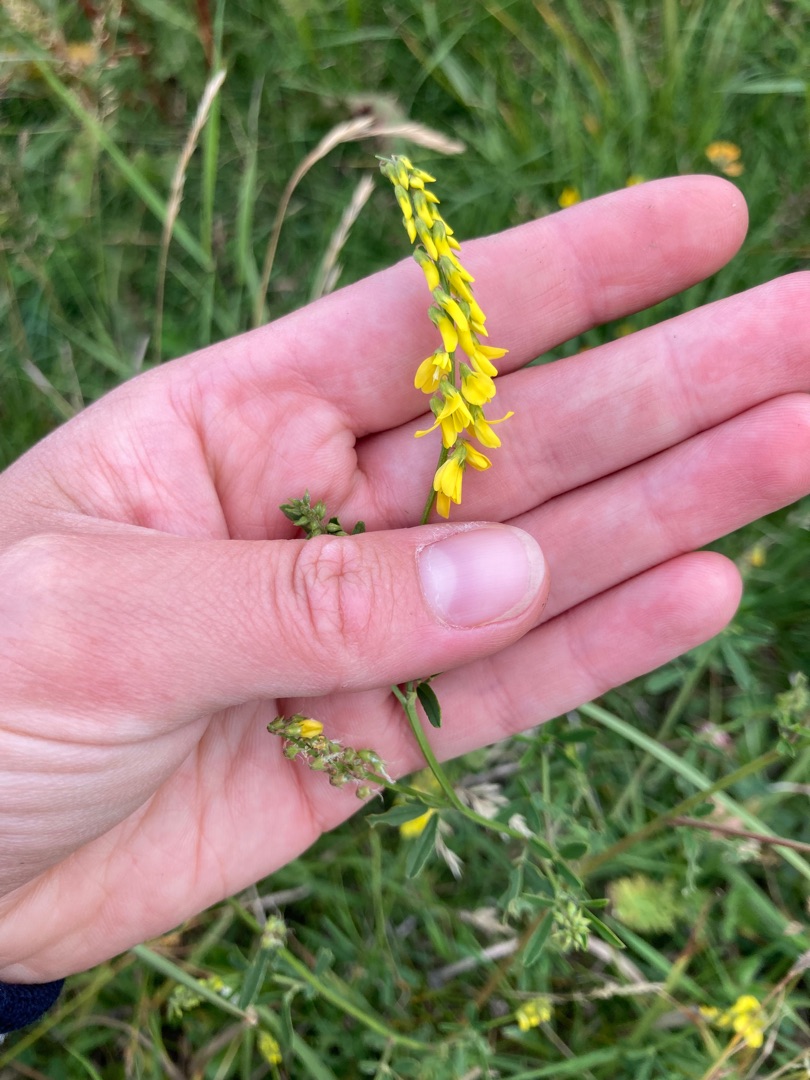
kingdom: Plantae
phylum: Tracheophyta
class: Magnoliopsida
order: Fabales
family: Fabaceae
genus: Melilotus
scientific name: Melilotus
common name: Stenkløverslægten
